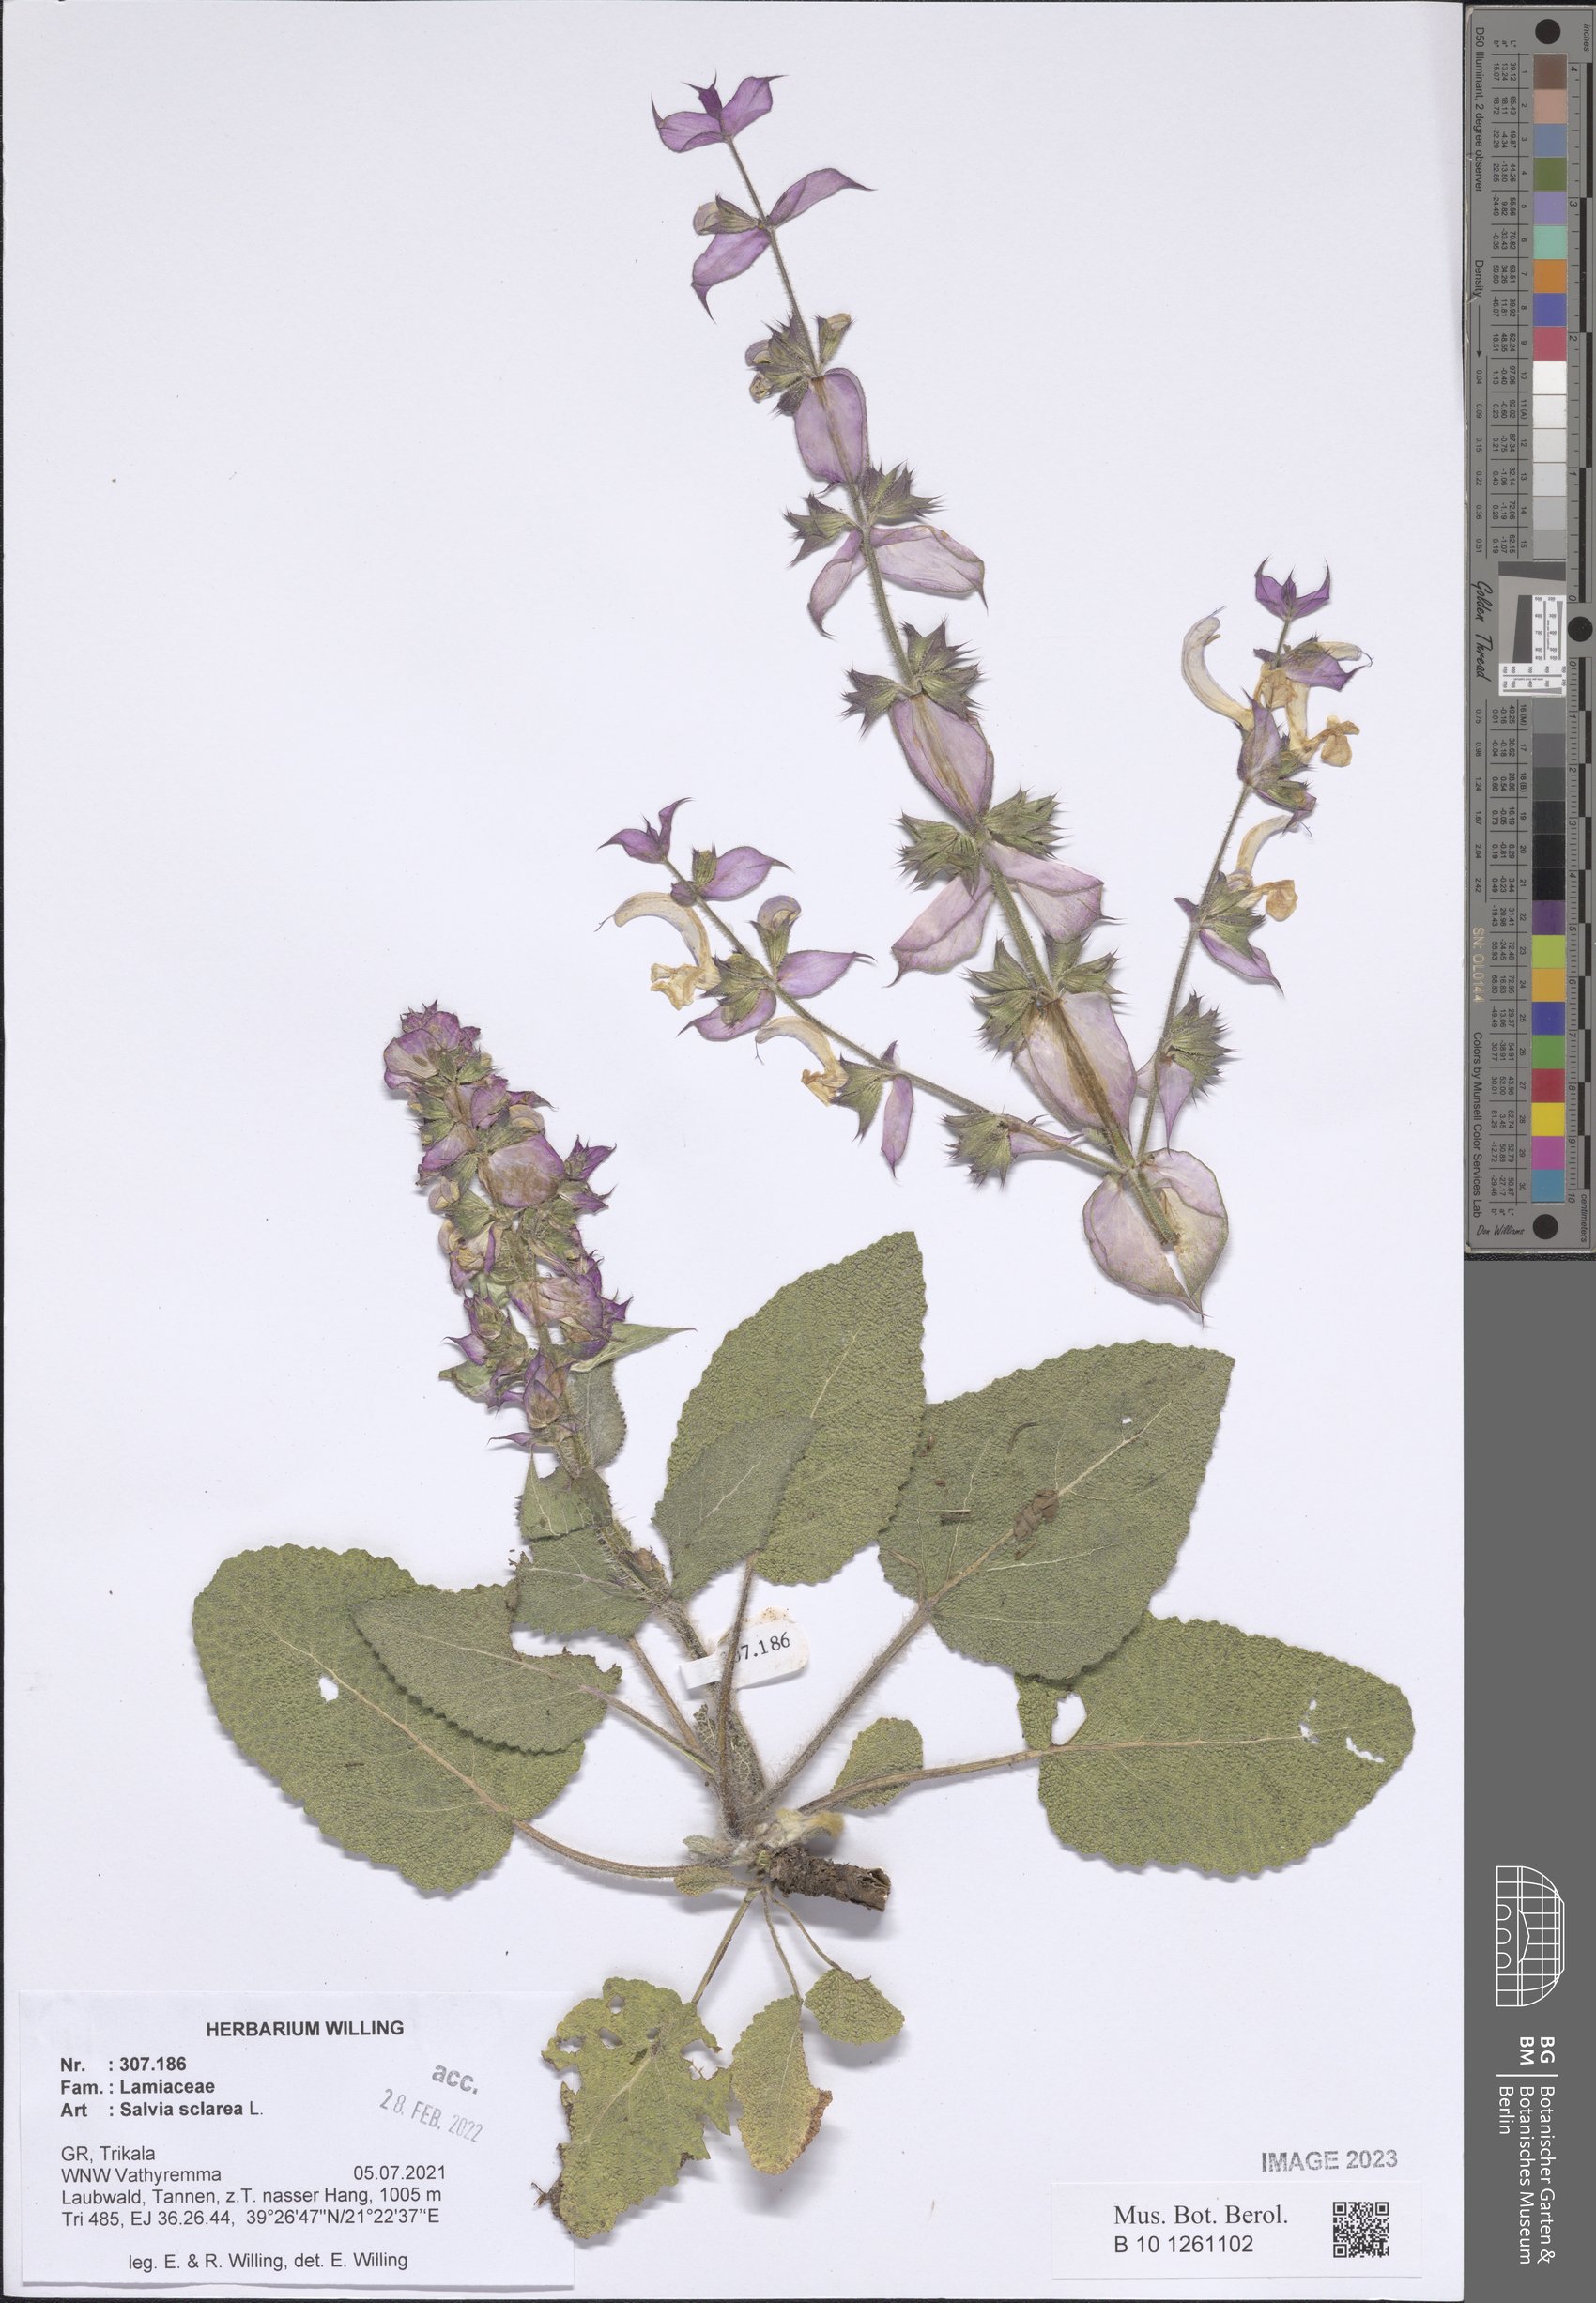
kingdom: Plantae
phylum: Tracheophyta
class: Magnoliopsida
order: Lamiales
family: Lamiaceae
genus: Salvia
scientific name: Salvia sclarea
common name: Clary
